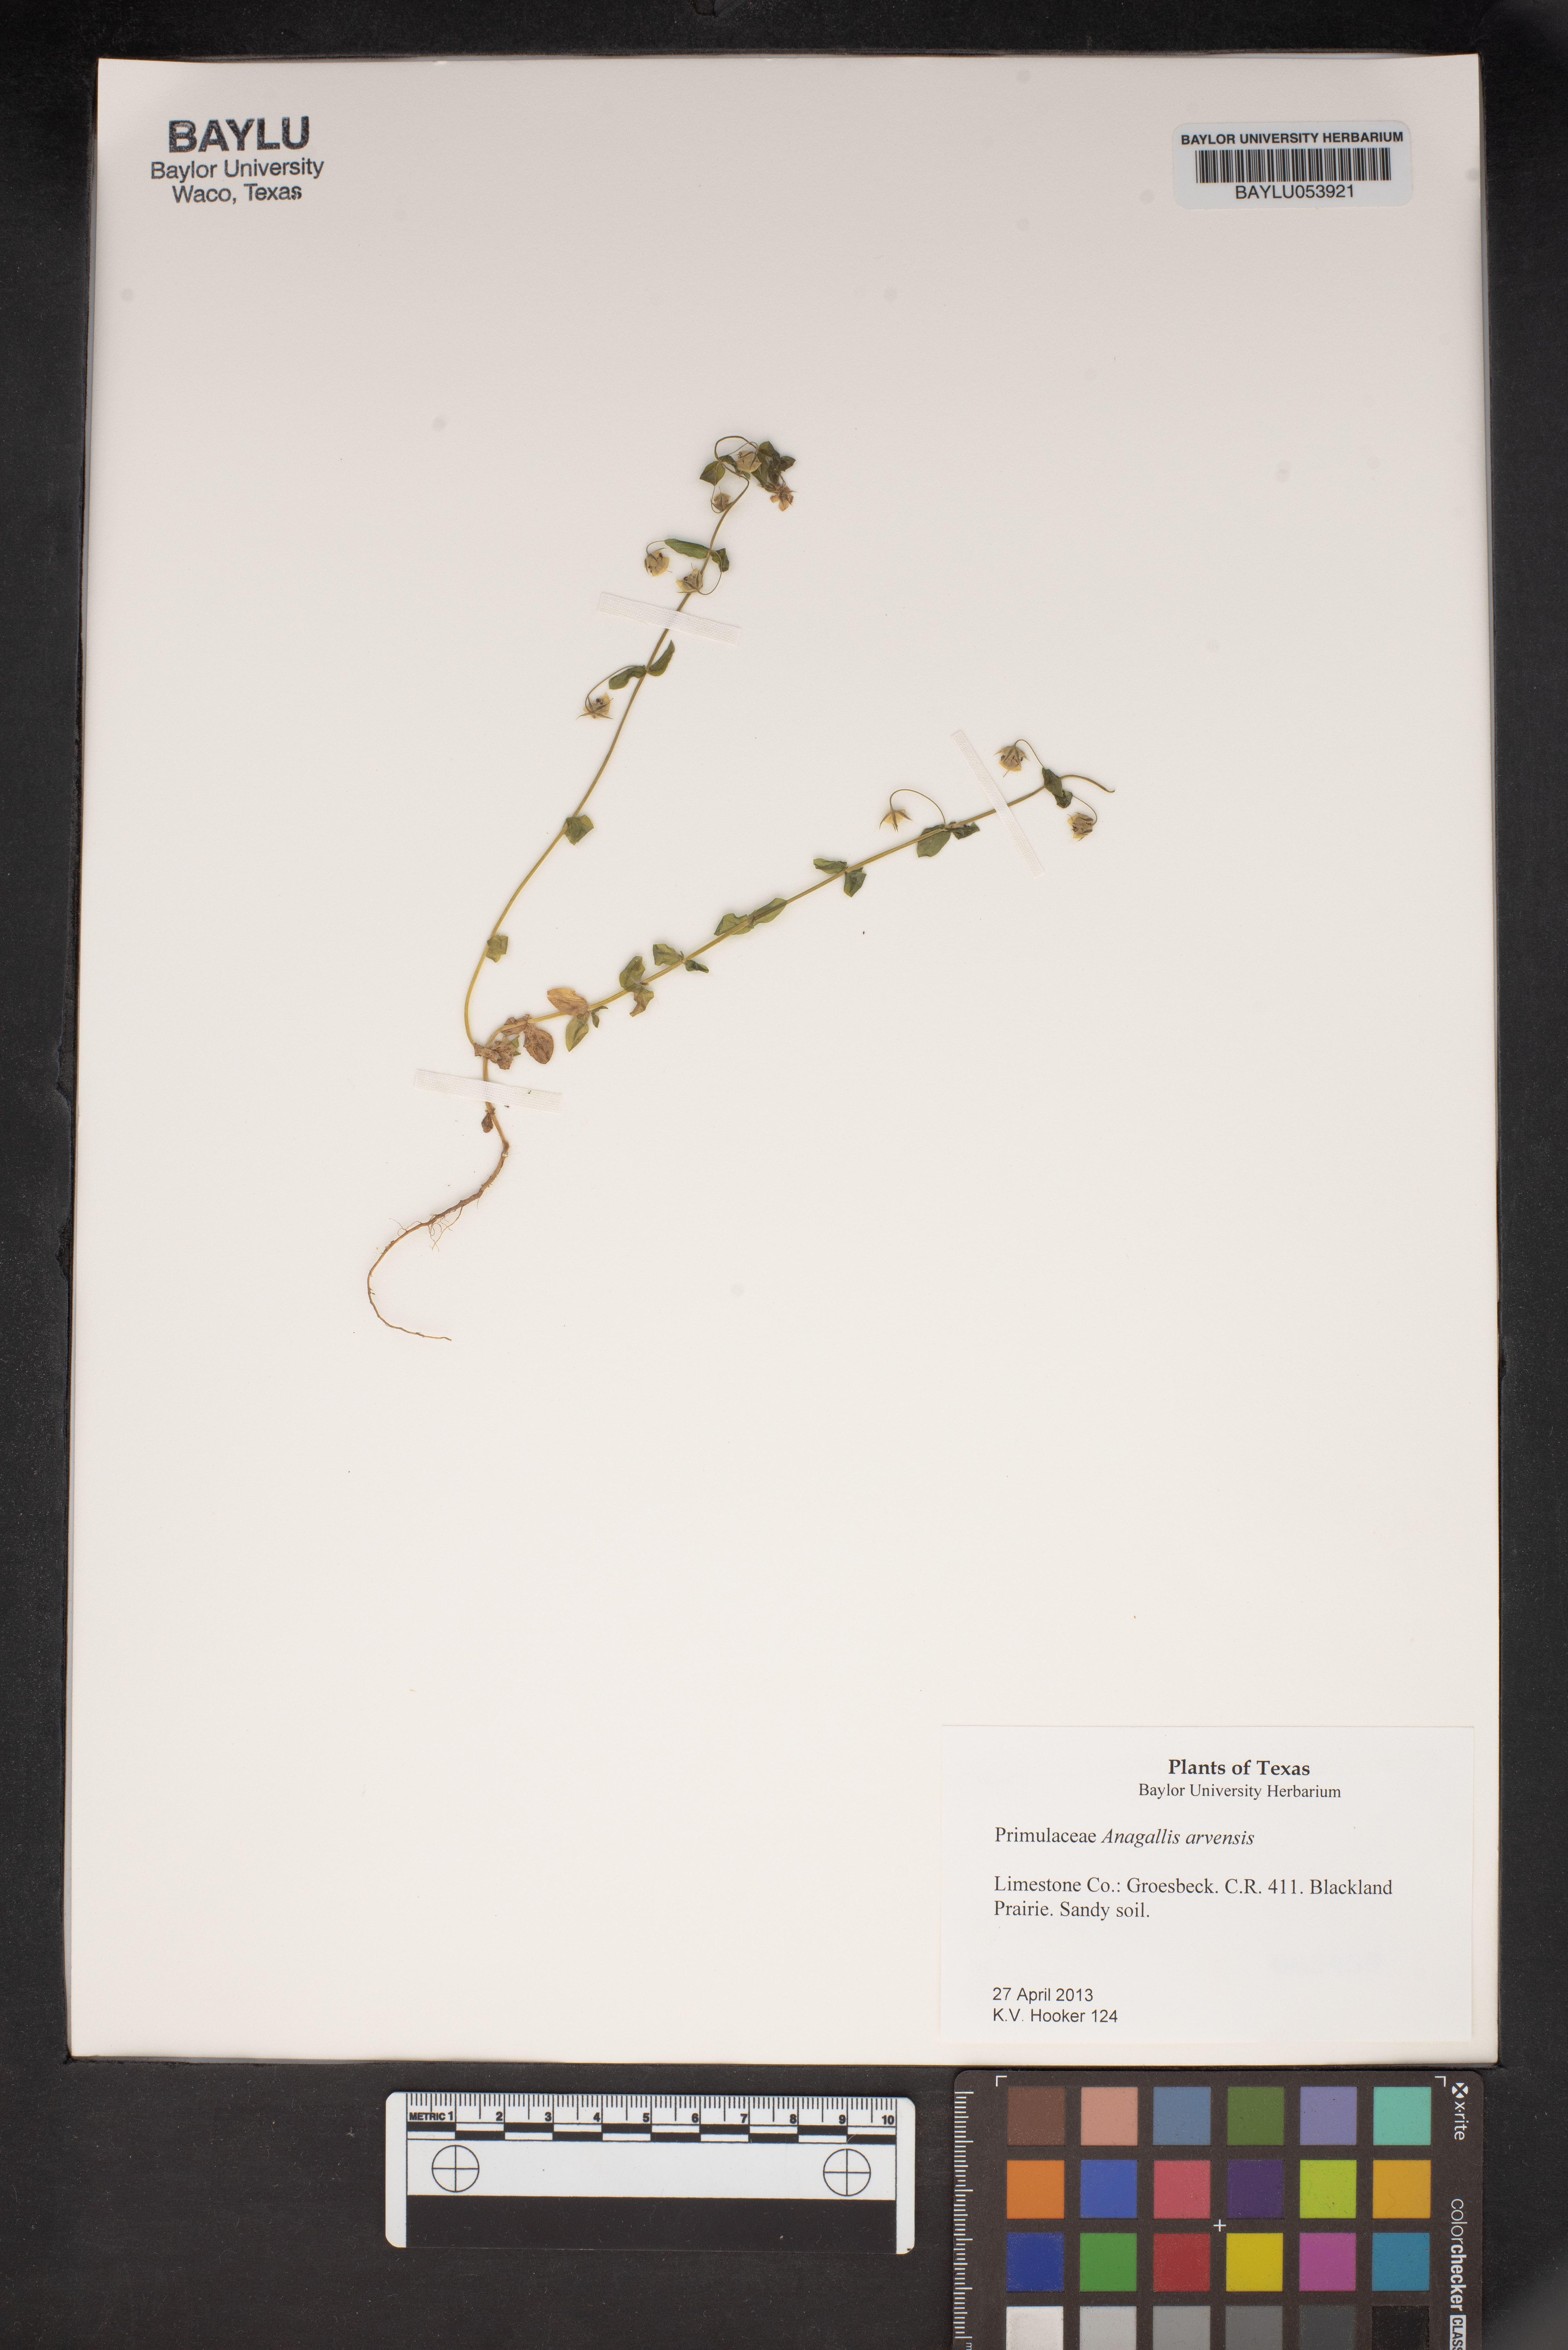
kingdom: Plantae
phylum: Tracheophyta
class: Magnoliopsida
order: Ericales
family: Primulaceae
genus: Lysimachia
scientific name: Lysimachia arvensis
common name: Scarlet pimpernel
